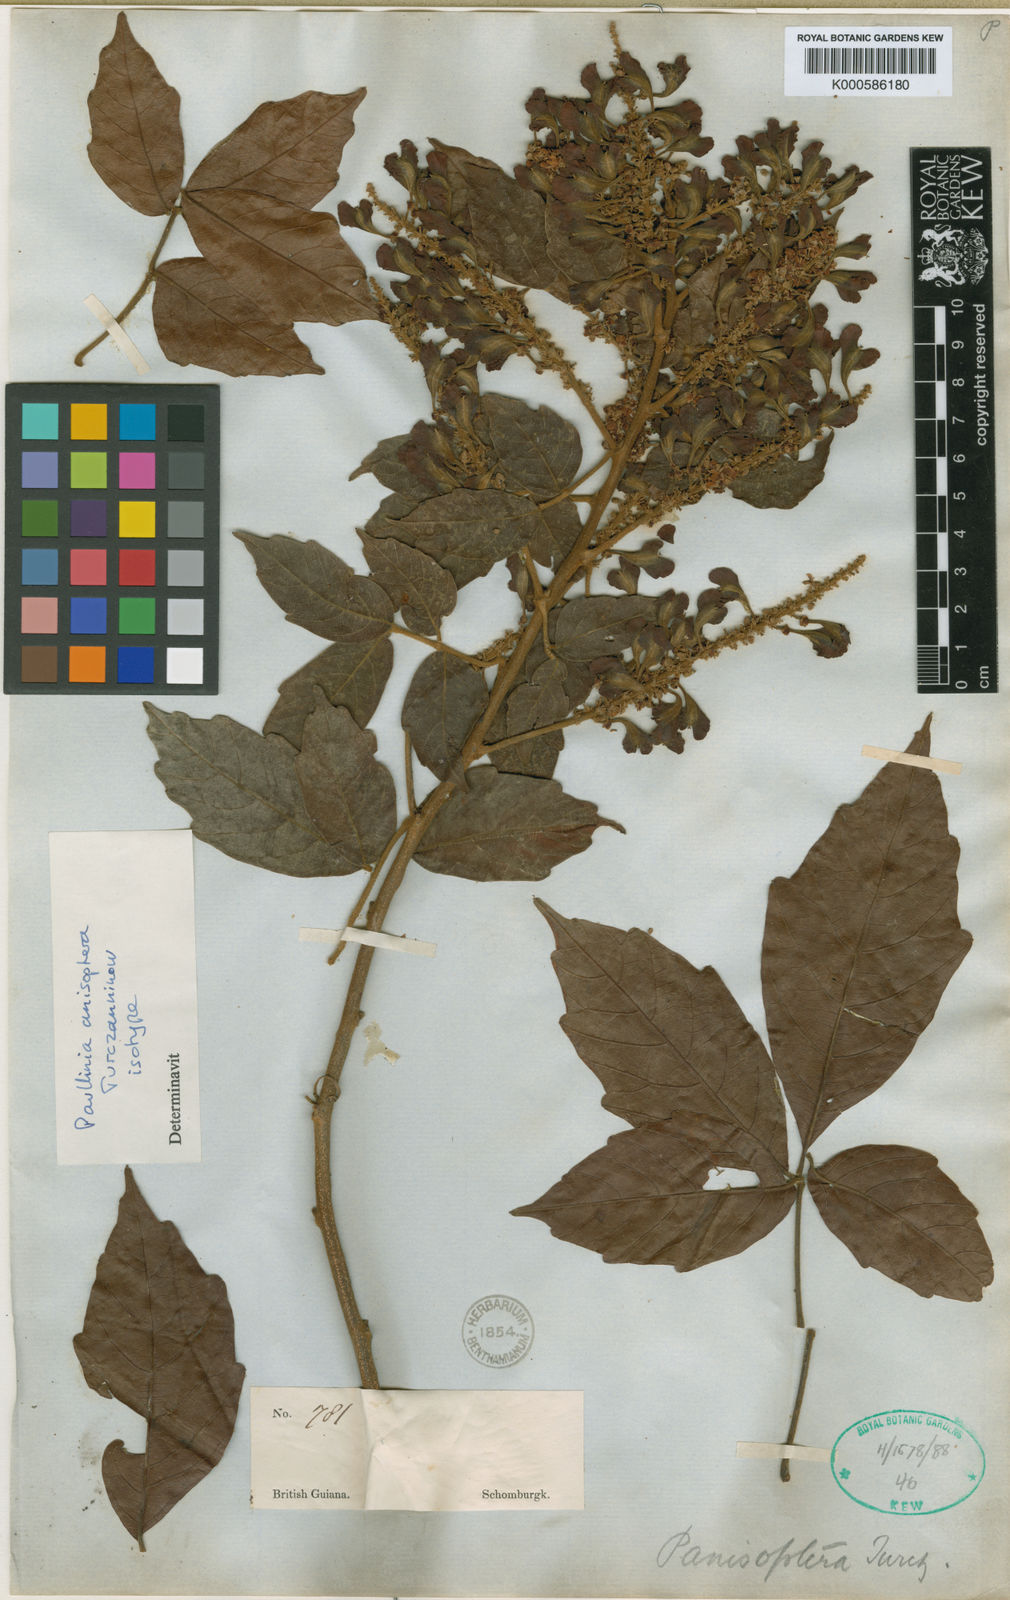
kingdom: Plantae
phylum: Tracheophyta
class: Magnoliopsida
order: Sapindales
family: Sapindaceae
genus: Paullinia
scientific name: Paullinia anisoptera
